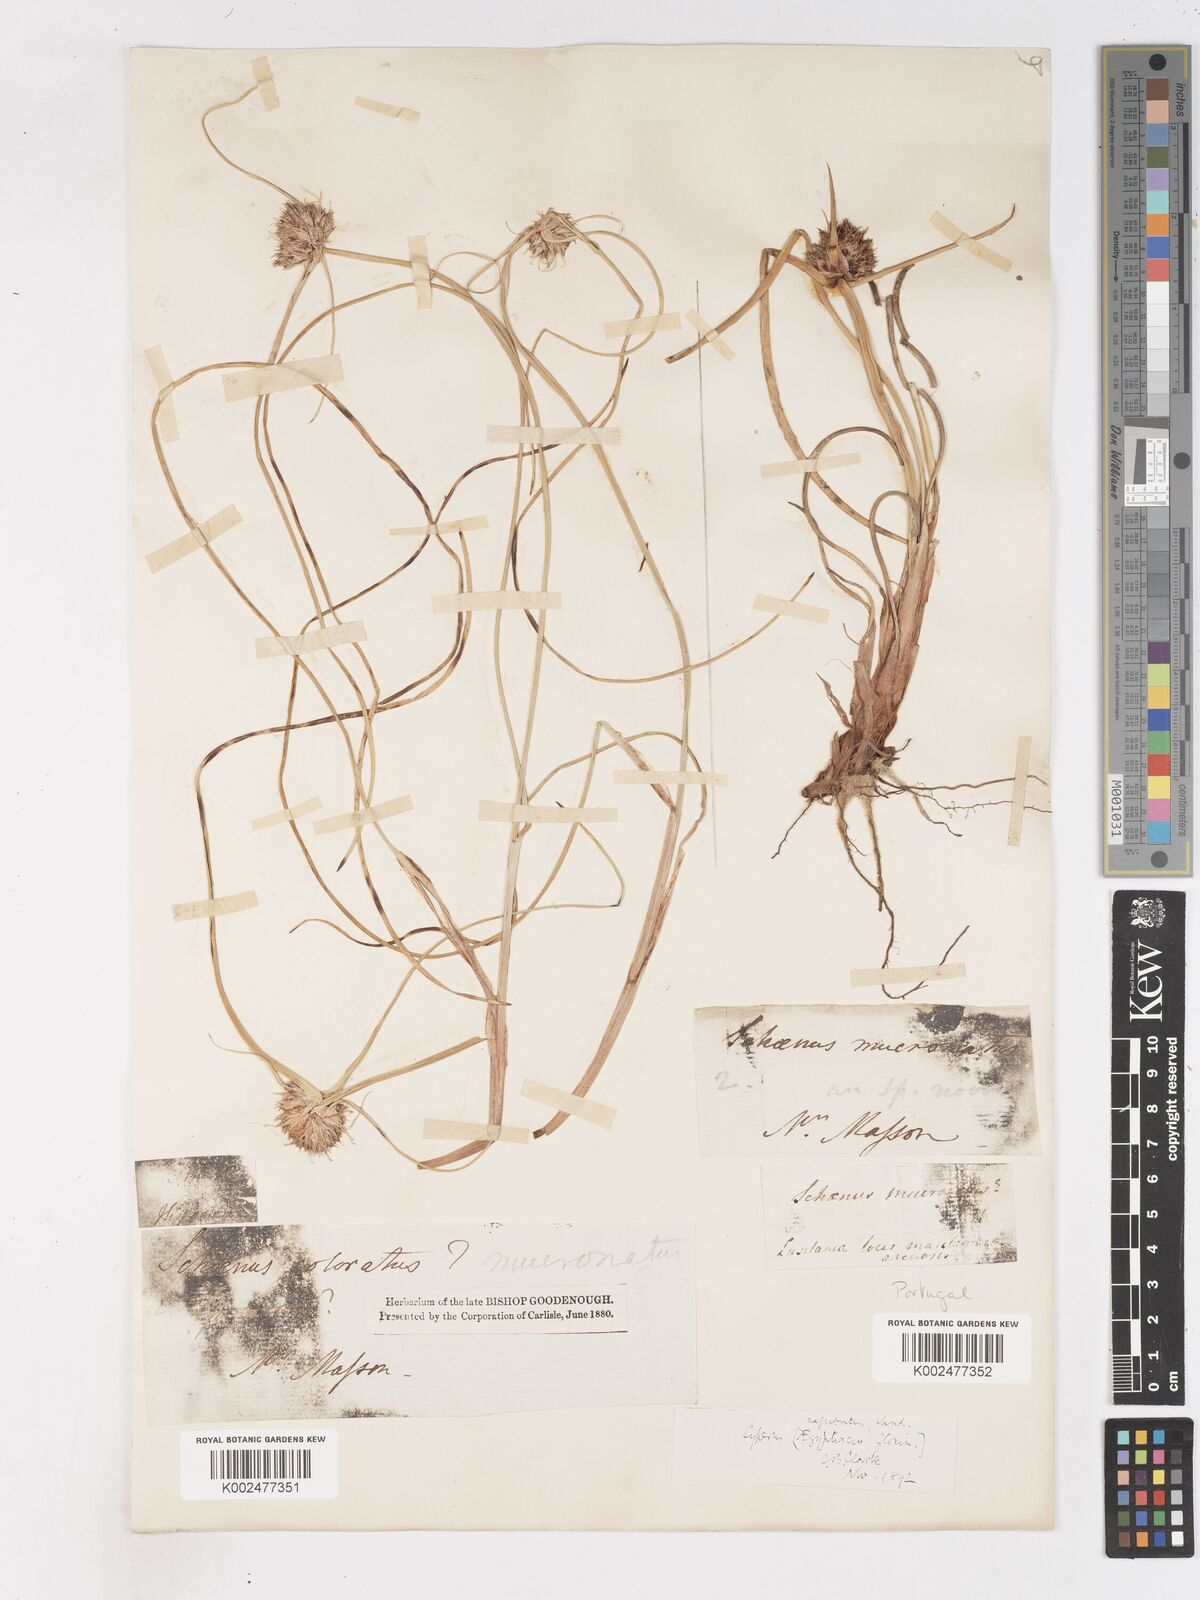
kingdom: Plantae
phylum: Tracheophyta
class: Liliopsida
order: Poales
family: Cyperaceae
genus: Cyperus
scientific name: Cyperus capitatus
